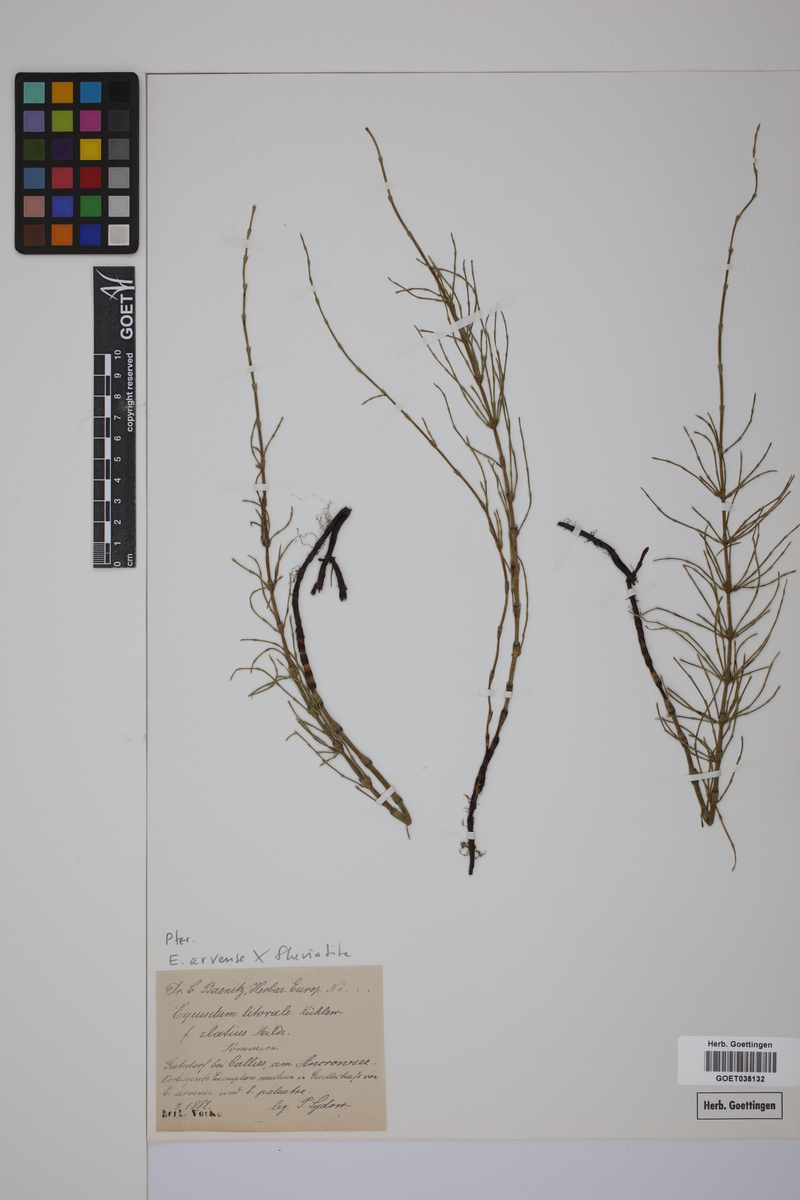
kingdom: Plantae
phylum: Tracheophyta
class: Polypodiopsida
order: Equisetales
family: Equisetaceae
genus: Equisetum
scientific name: Equisetum litorale
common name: Littoral horsetail
